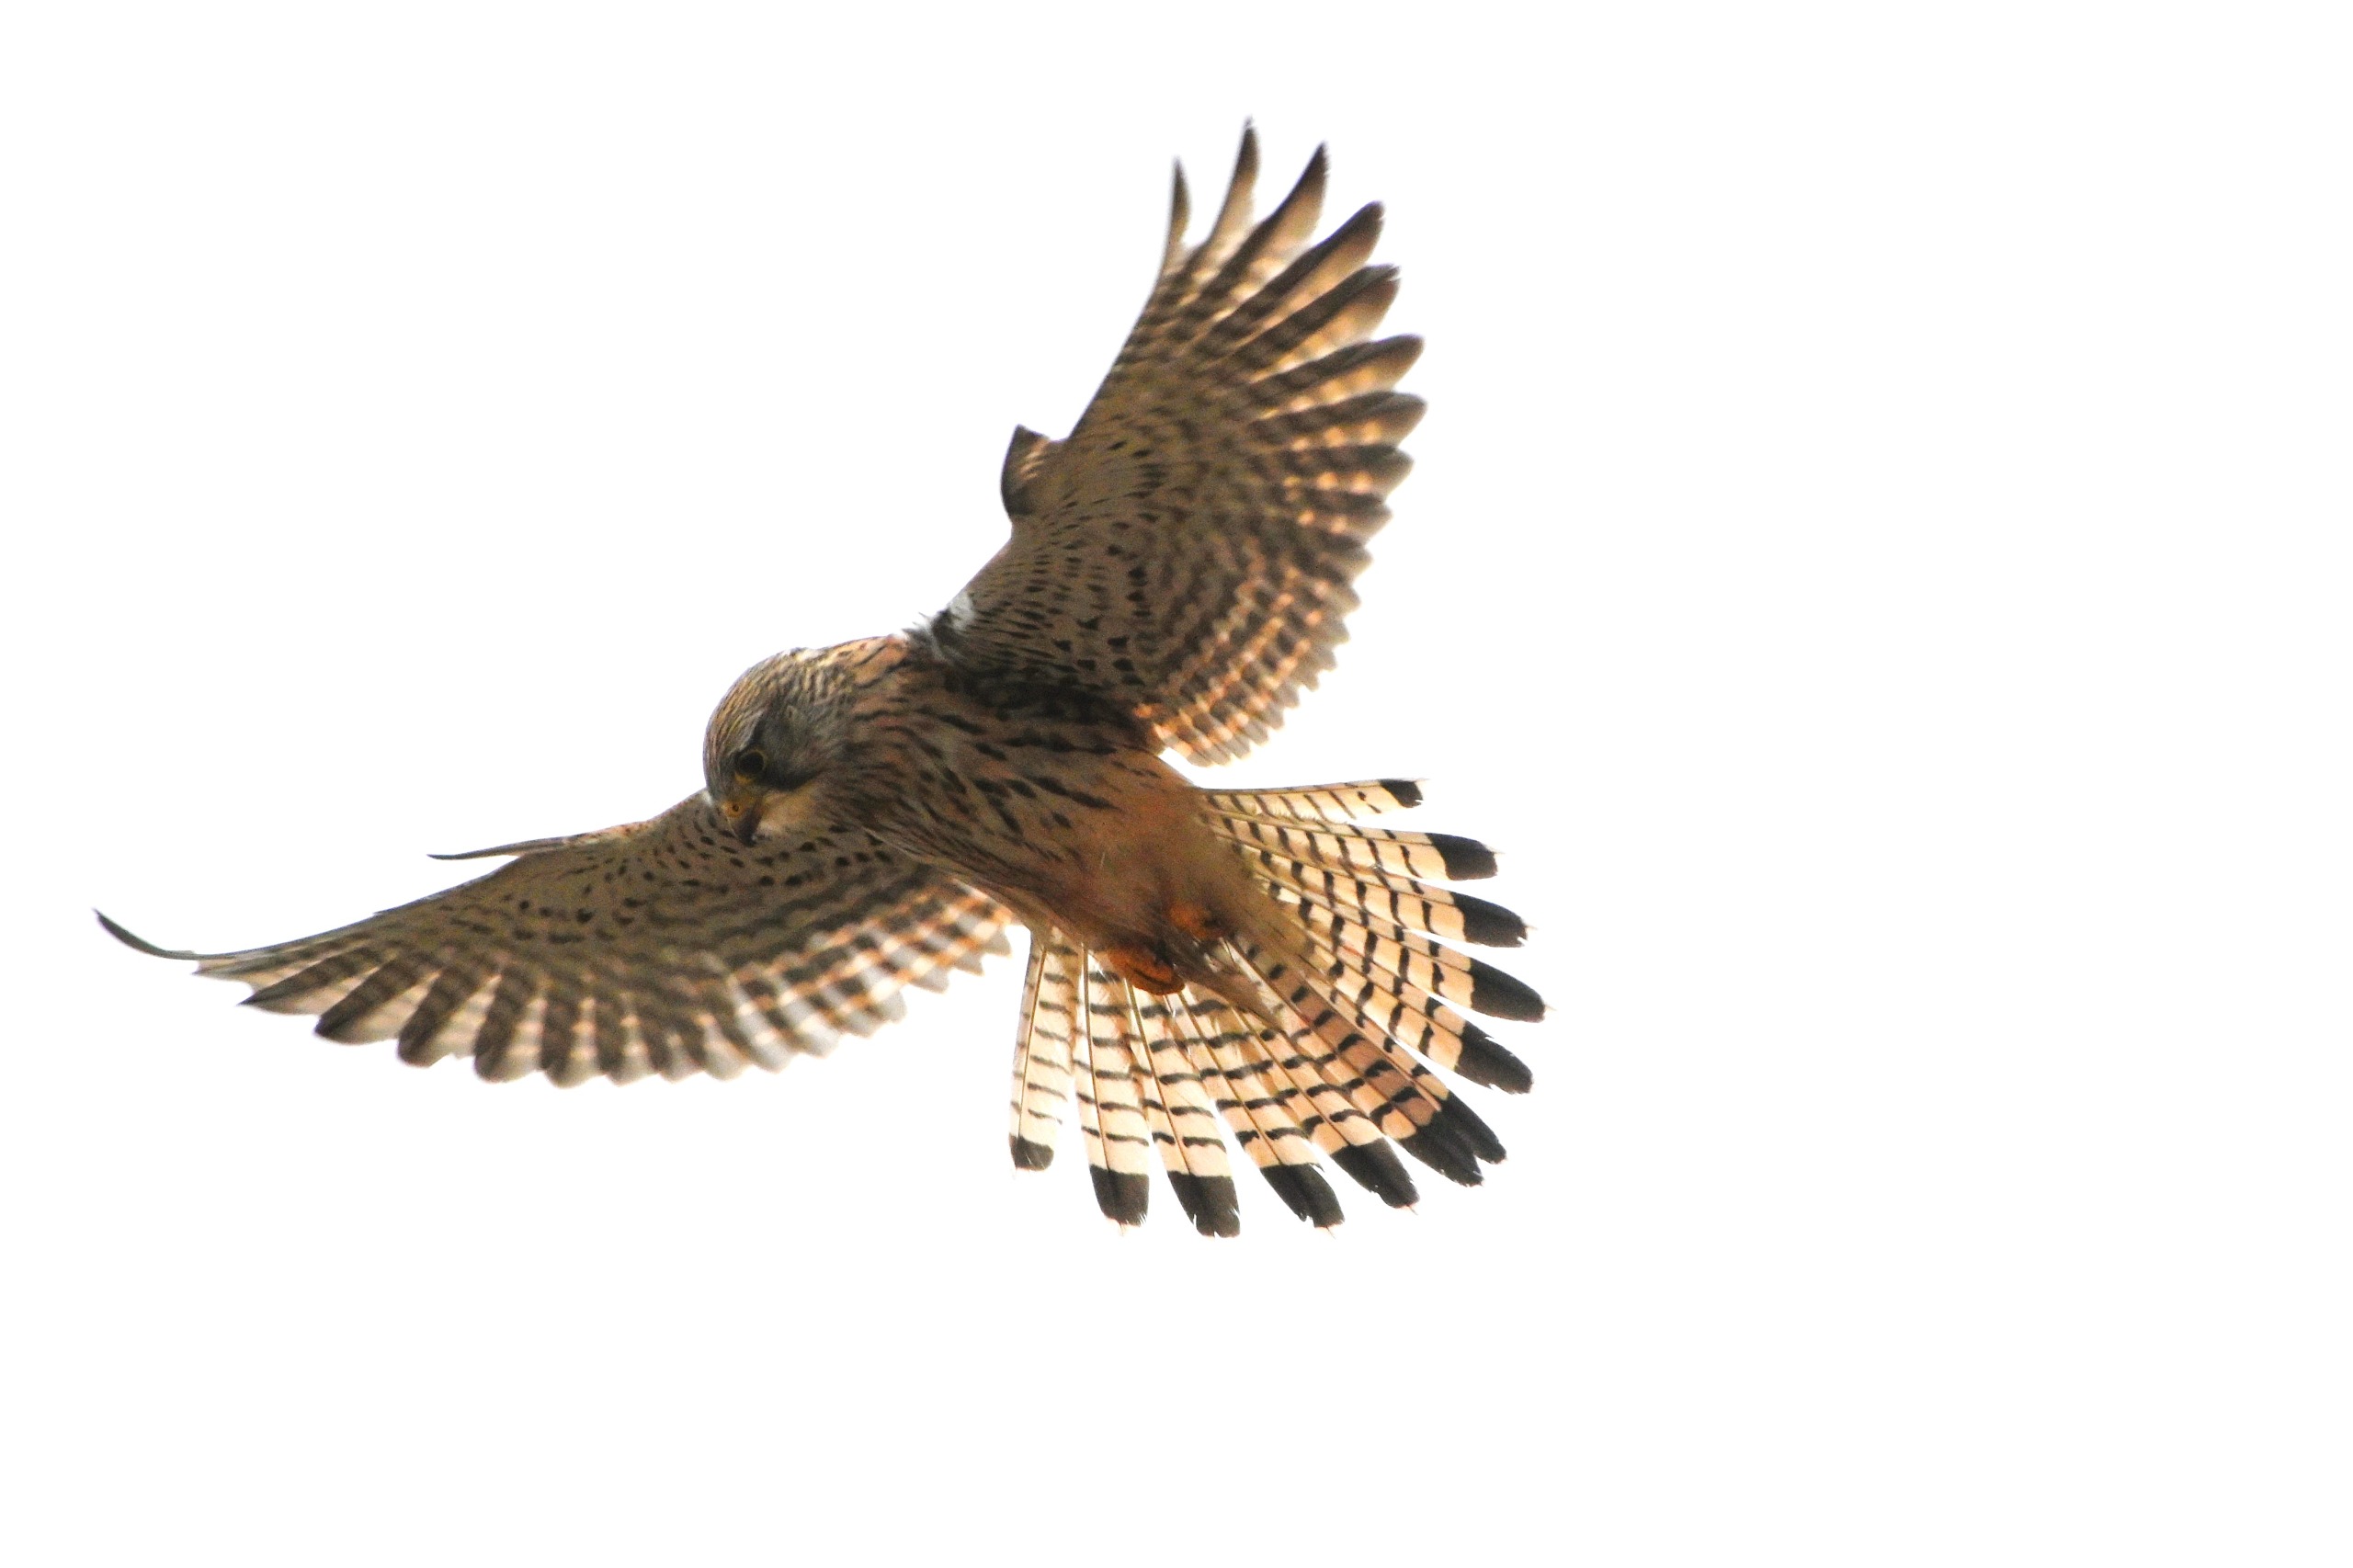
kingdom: Animalia
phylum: Chordata
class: Aves
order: Falconiformes
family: Falconidae
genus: Falco
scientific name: Falco tinnunculus
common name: Tårnfalk
